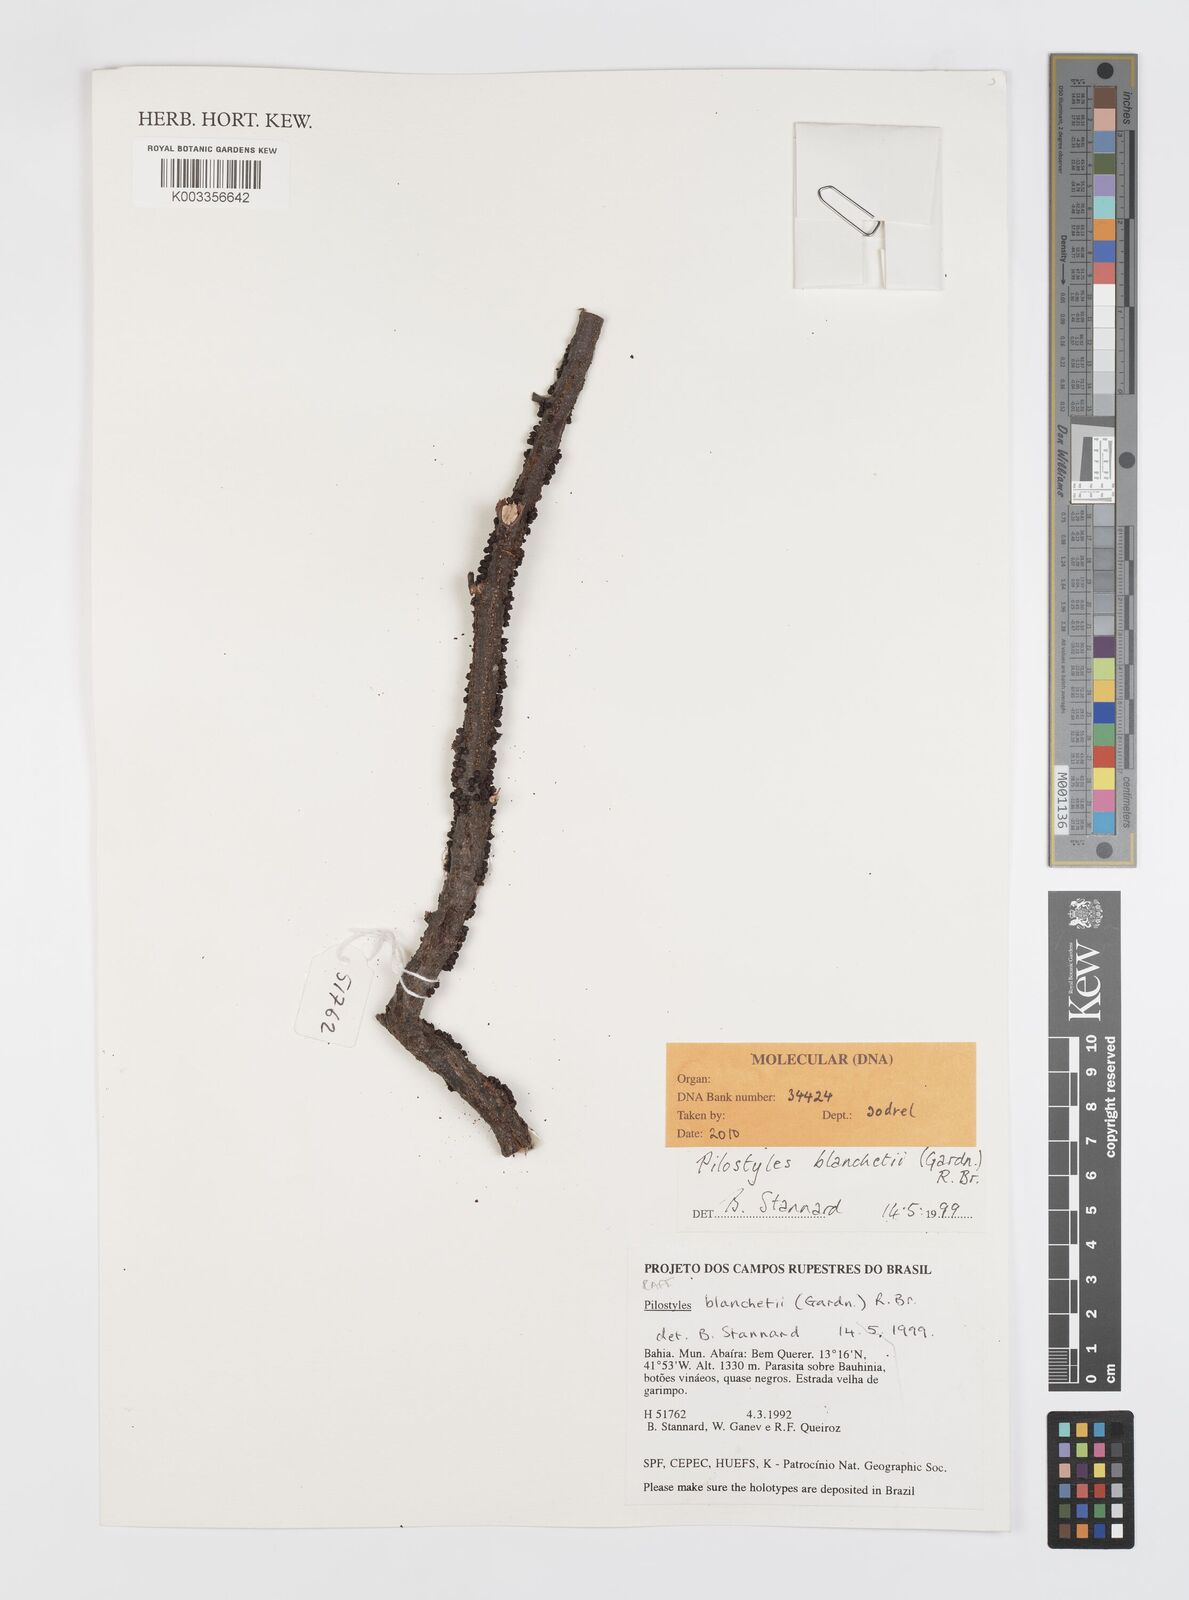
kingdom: Plantae
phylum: Tracheophyta
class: Magnoliopsida
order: Cucurbitales
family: Apodanthaceae
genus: Pilostyles
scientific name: Pilostyles blanchetii
